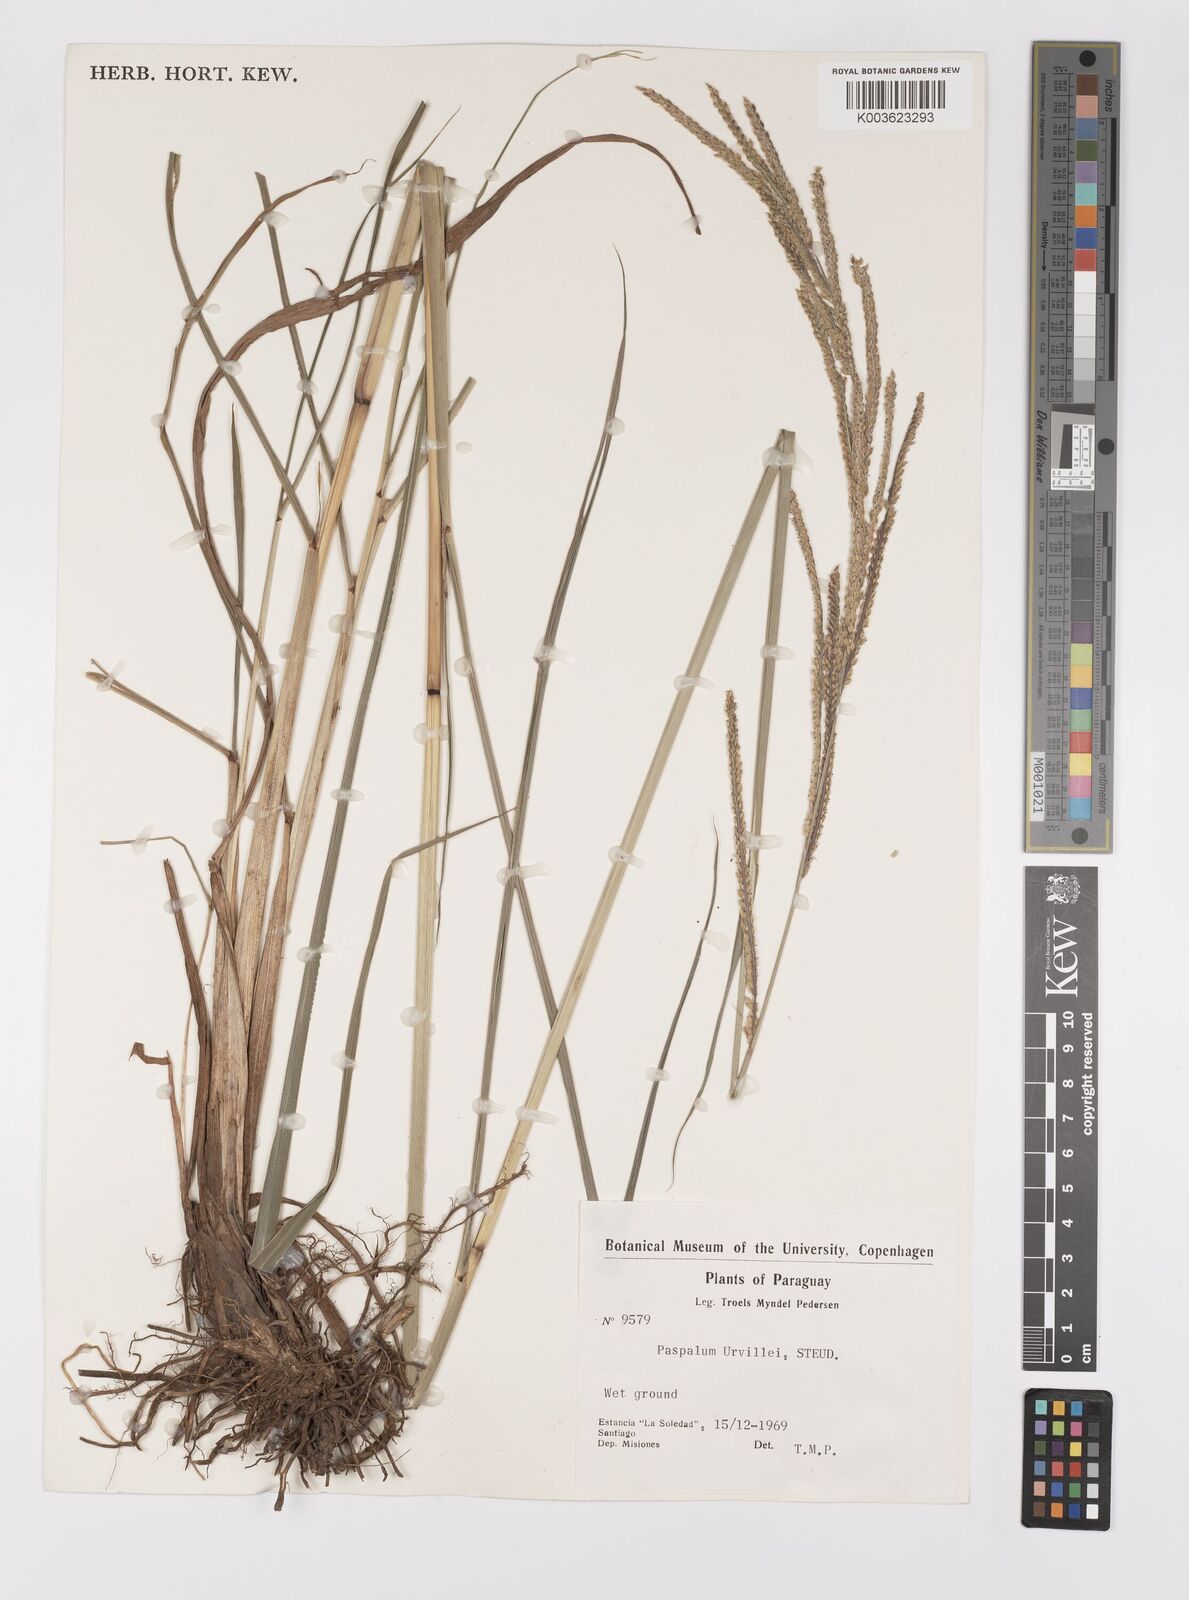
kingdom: Plantae
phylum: Tracheophyta
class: Liliopsida
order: Poales
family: Poaceae
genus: Paspalum
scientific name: Paspalum urvillei
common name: Vasey's grass
